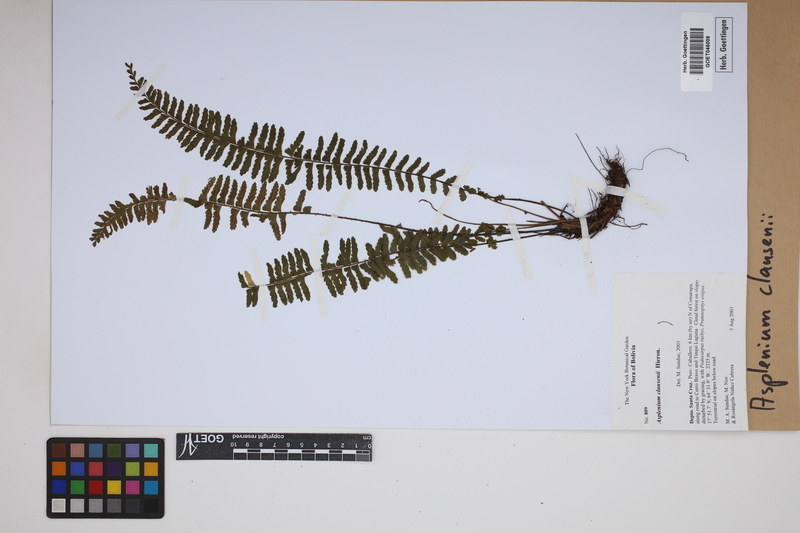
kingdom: Plantae
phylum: Tracheophyta
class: Polypodiopsida
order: Polypodiales
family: Aspleniaceae
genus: Asplenium
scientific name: Asplenium claussenii
